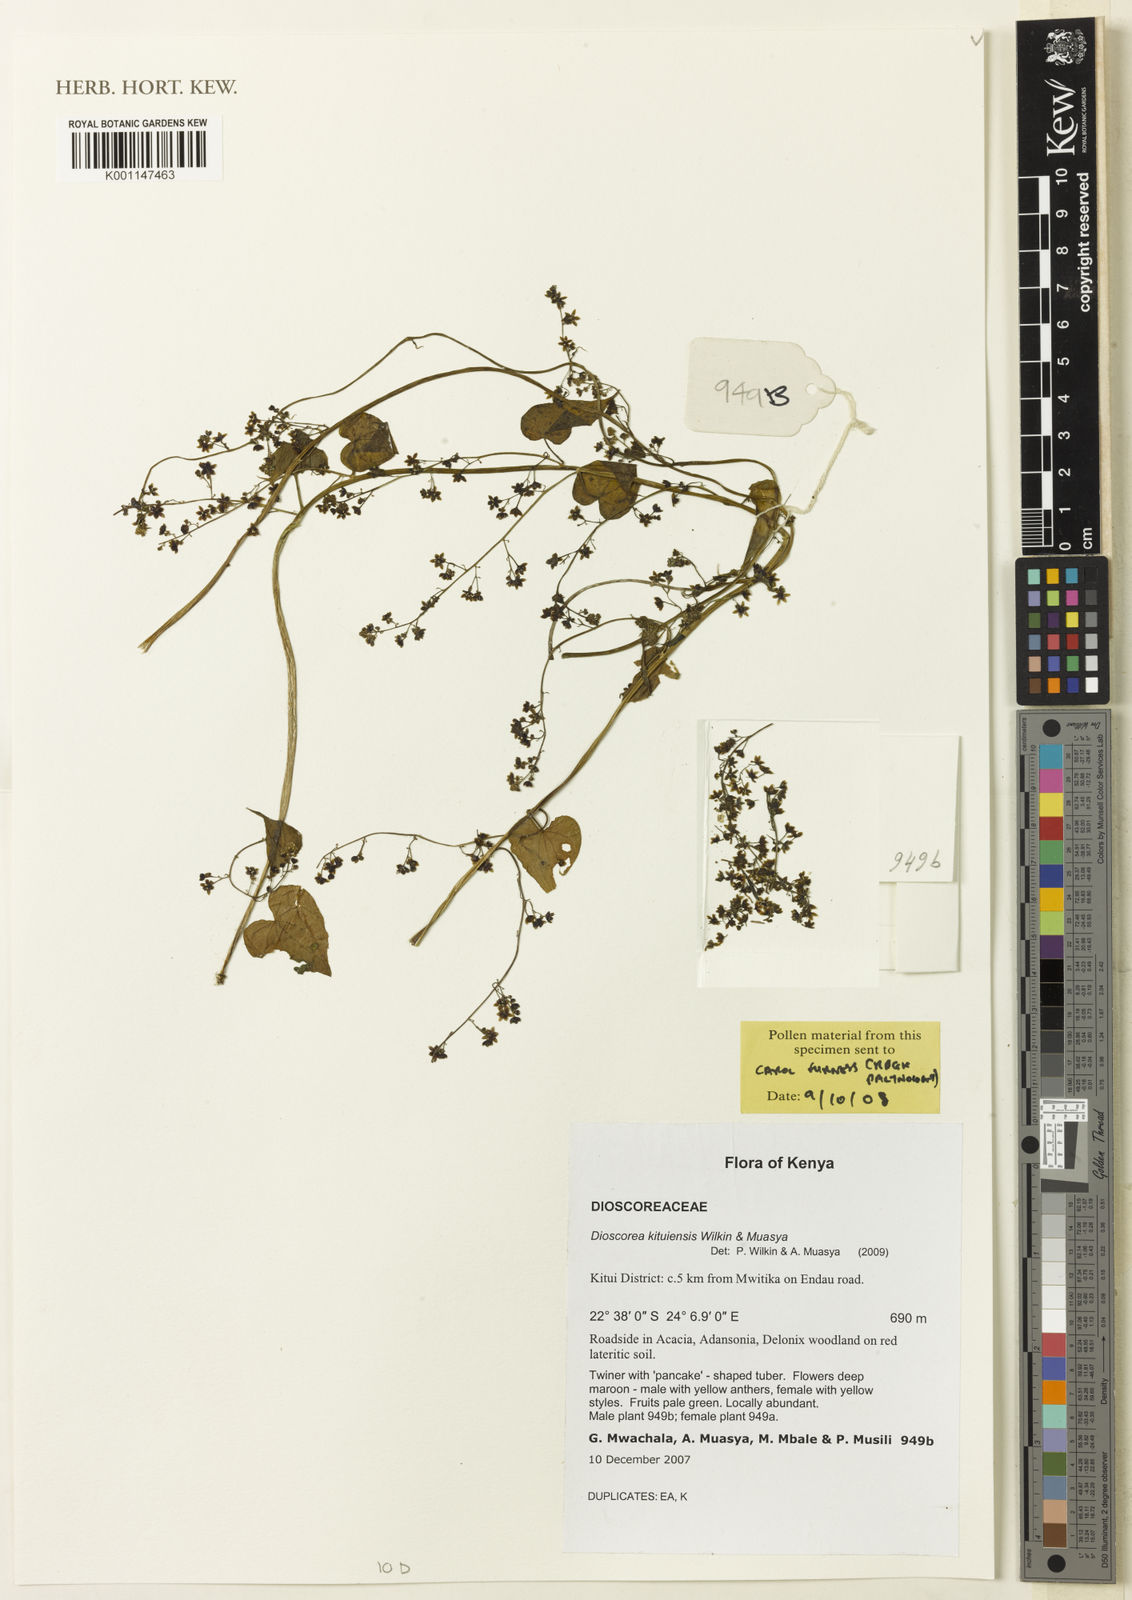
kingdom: Plantae
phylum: Tracheophyta
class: Liliopsida
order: Dioscoreales
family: Dioscoreaceae
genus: Dioscorea
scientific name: Dioscorea kituiensis
